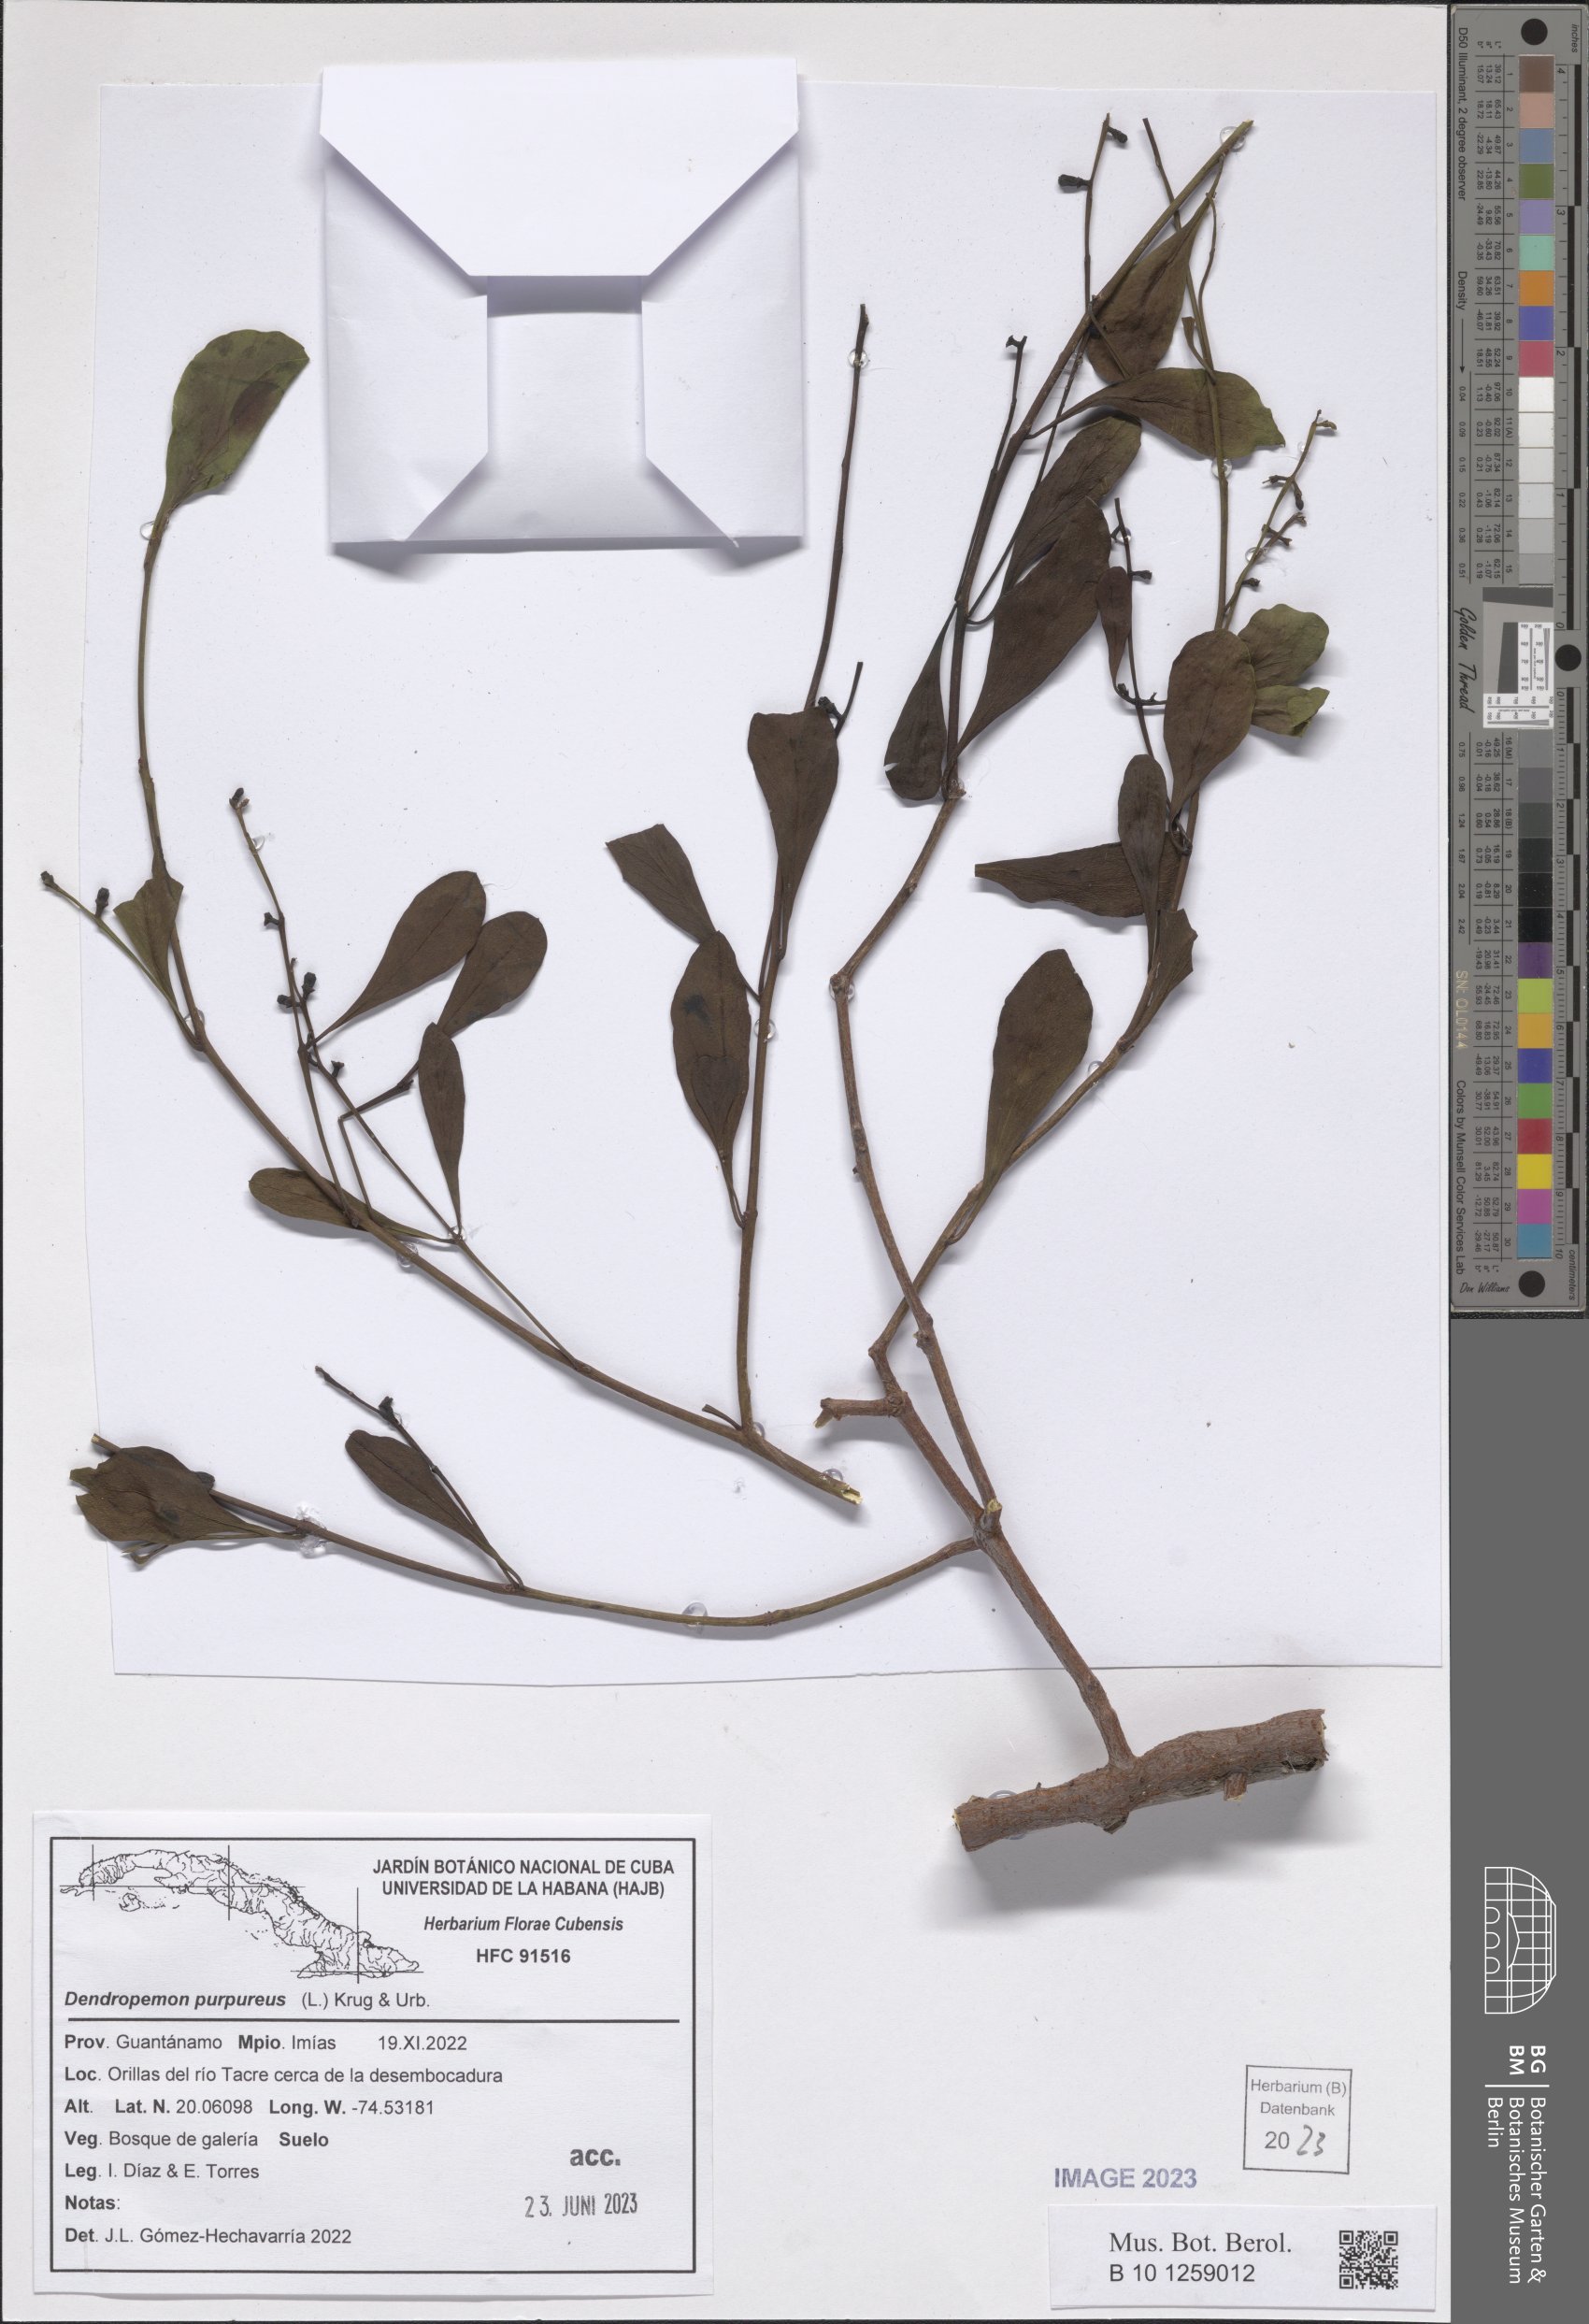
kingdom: Plantae
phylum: Tracheophyta
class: Magnoliopsida
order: Santalales
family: Loranthaceae
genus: Dendropemon
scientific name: Dendropemon purpureus
